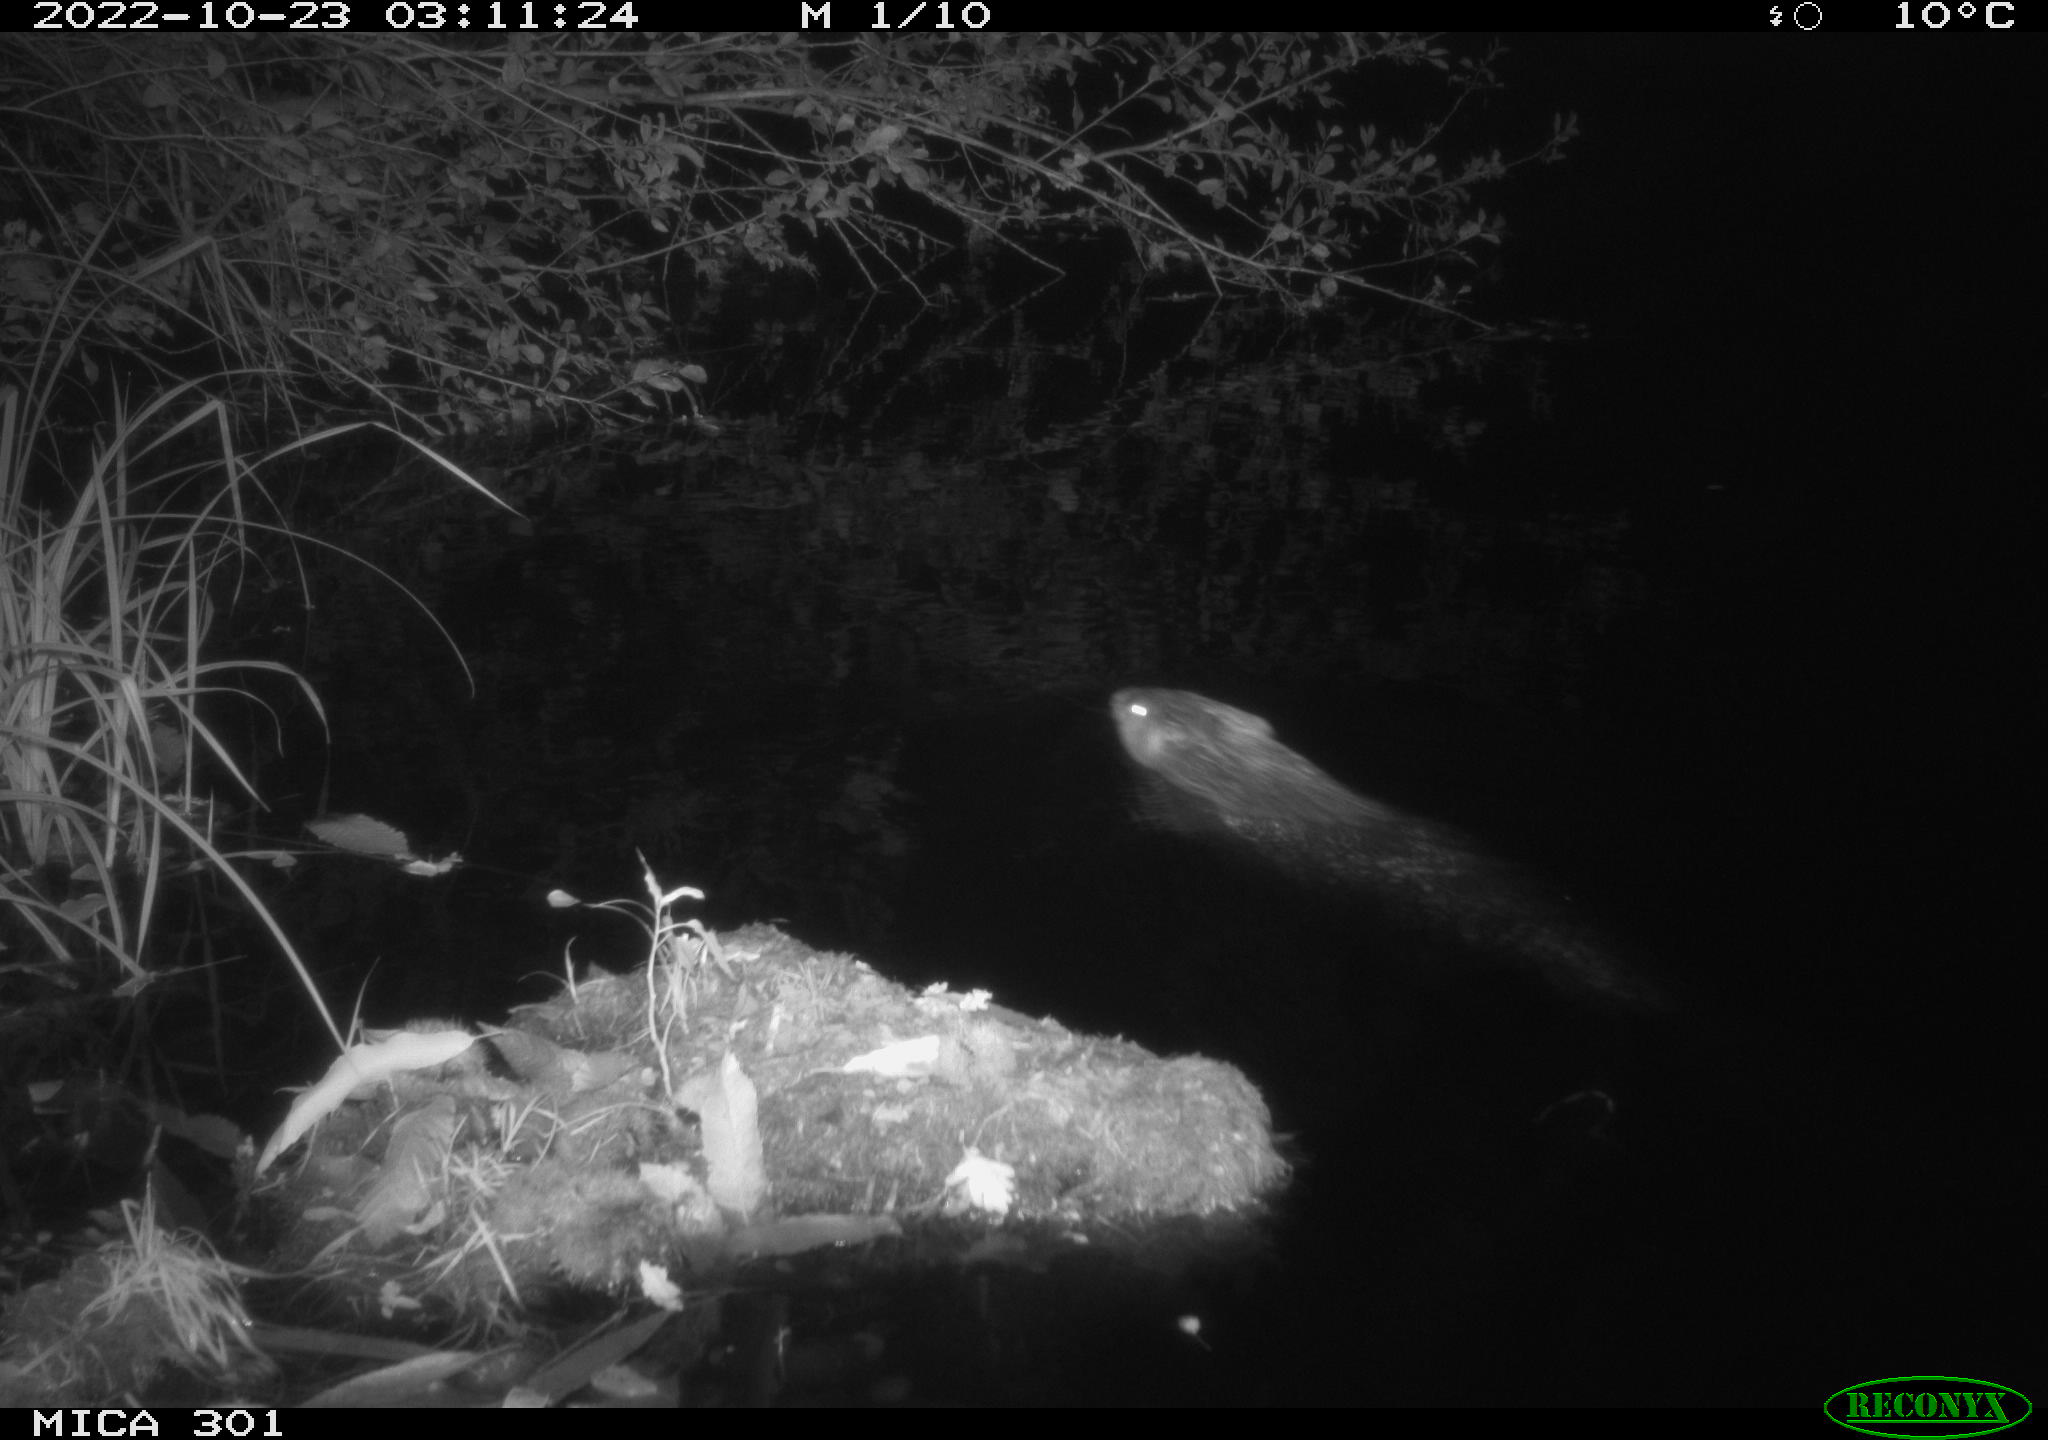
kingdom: Animalia
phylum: Chordata
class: Mammalia
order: Rodentia
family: Castoridae
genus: Castor
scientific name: Castor fiber
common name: Eurasian beaver
